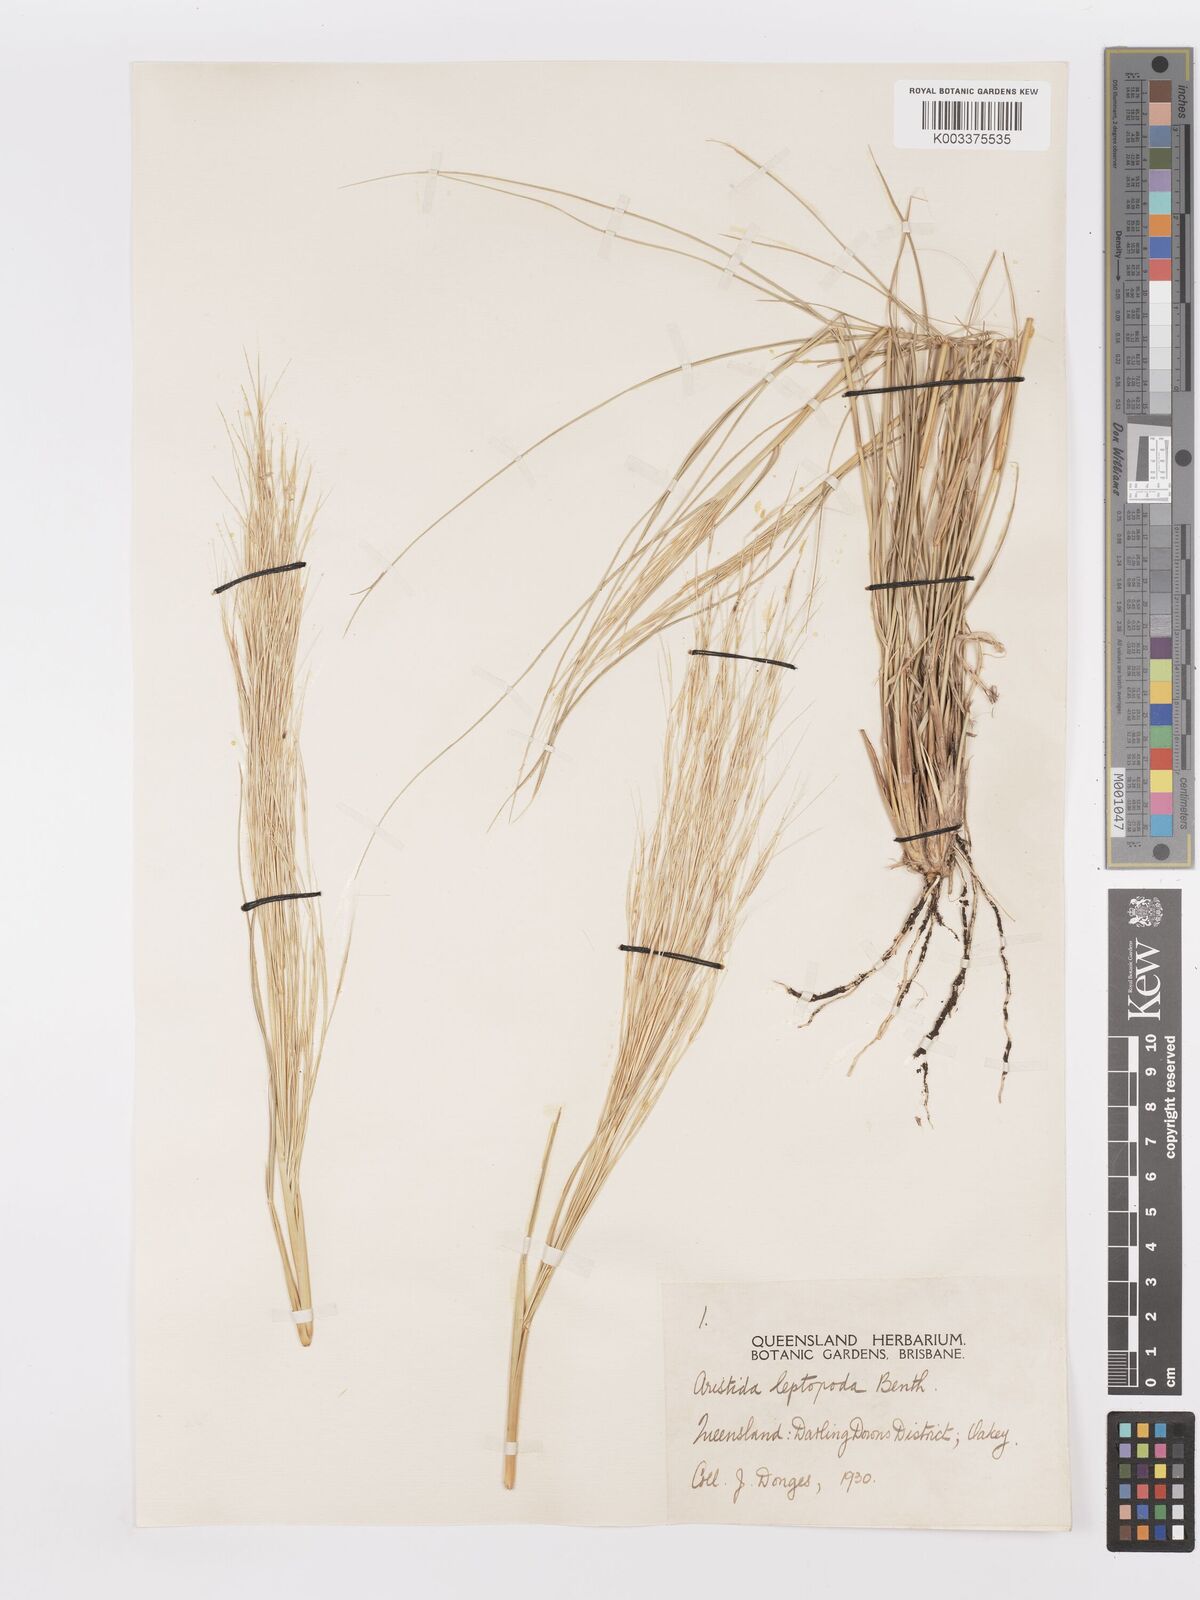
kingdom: Plantae
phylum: Tracheophyta
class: Liliopsida
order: Poales
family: Poaceae
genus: Aristida
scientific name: Aristida leptopoda
